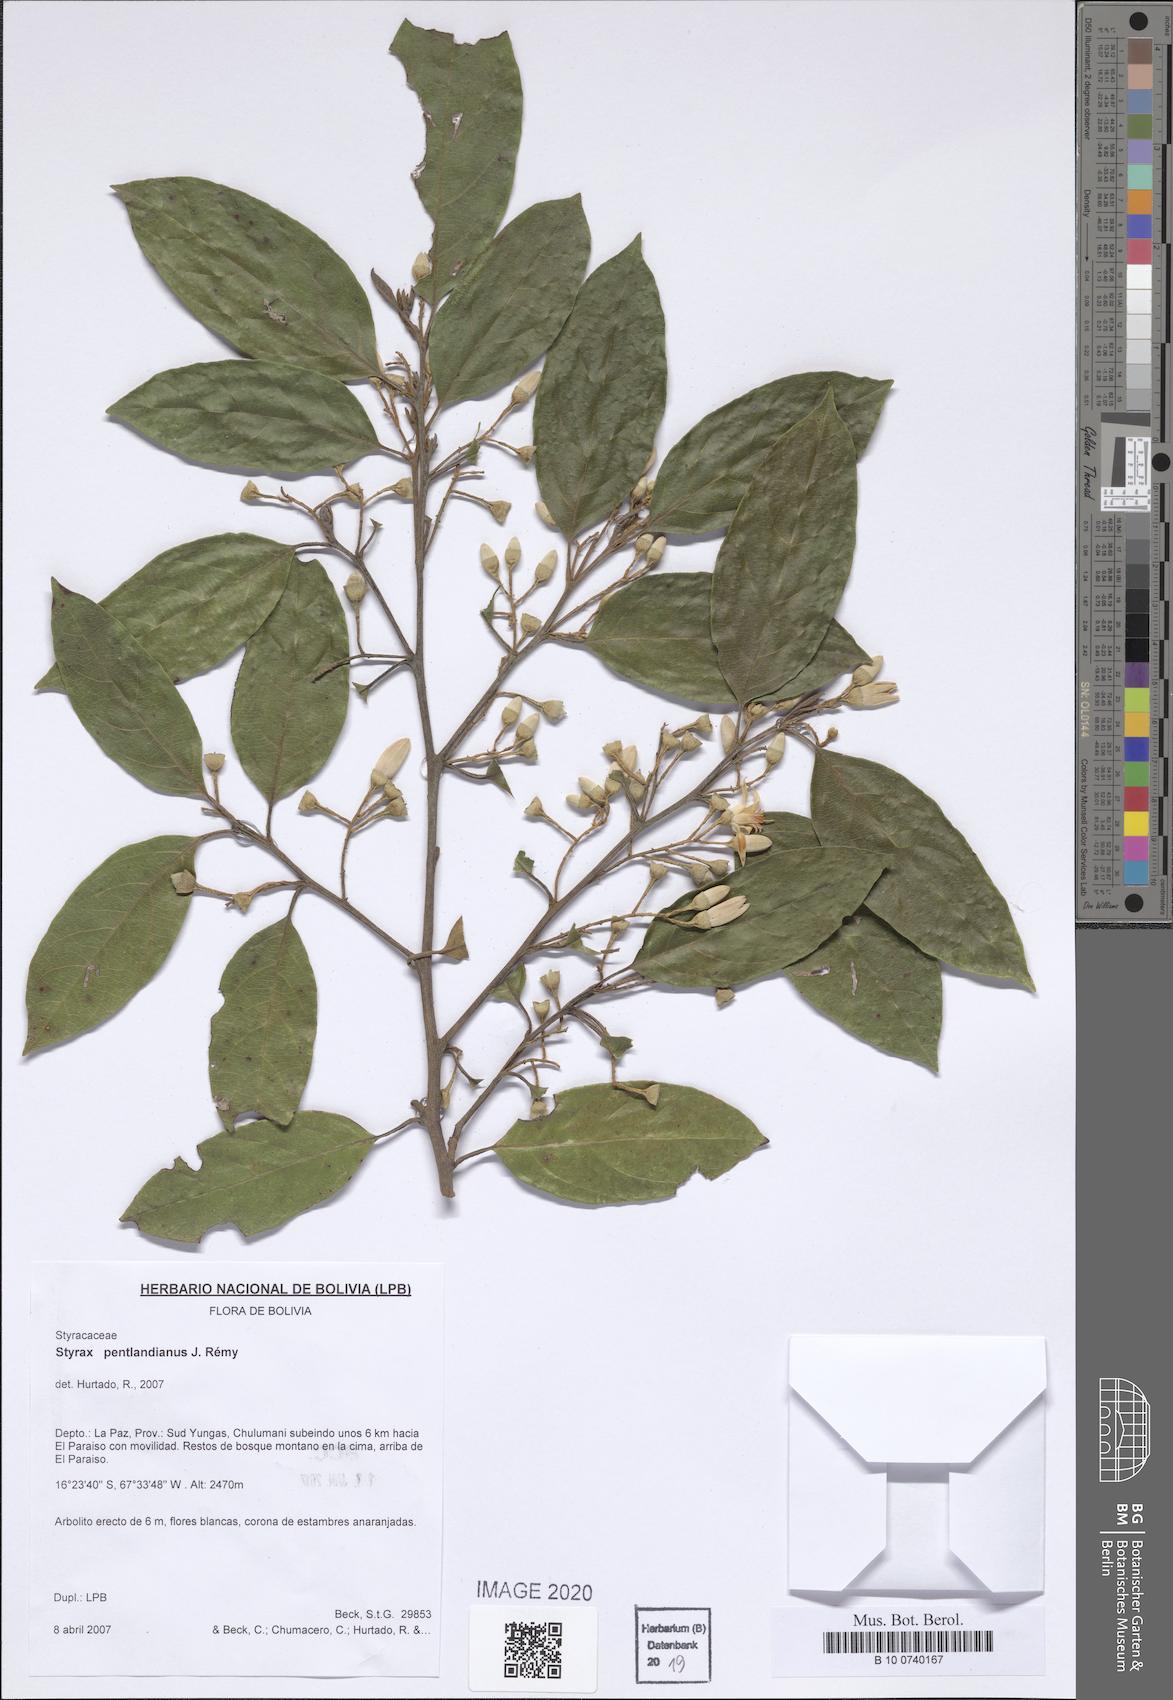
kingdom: Plantae
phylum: Tracheophyta
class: Magnoliopsida
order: Ericales
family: Styracaceae
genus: Styrax
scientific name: Styrax pentlandianus
